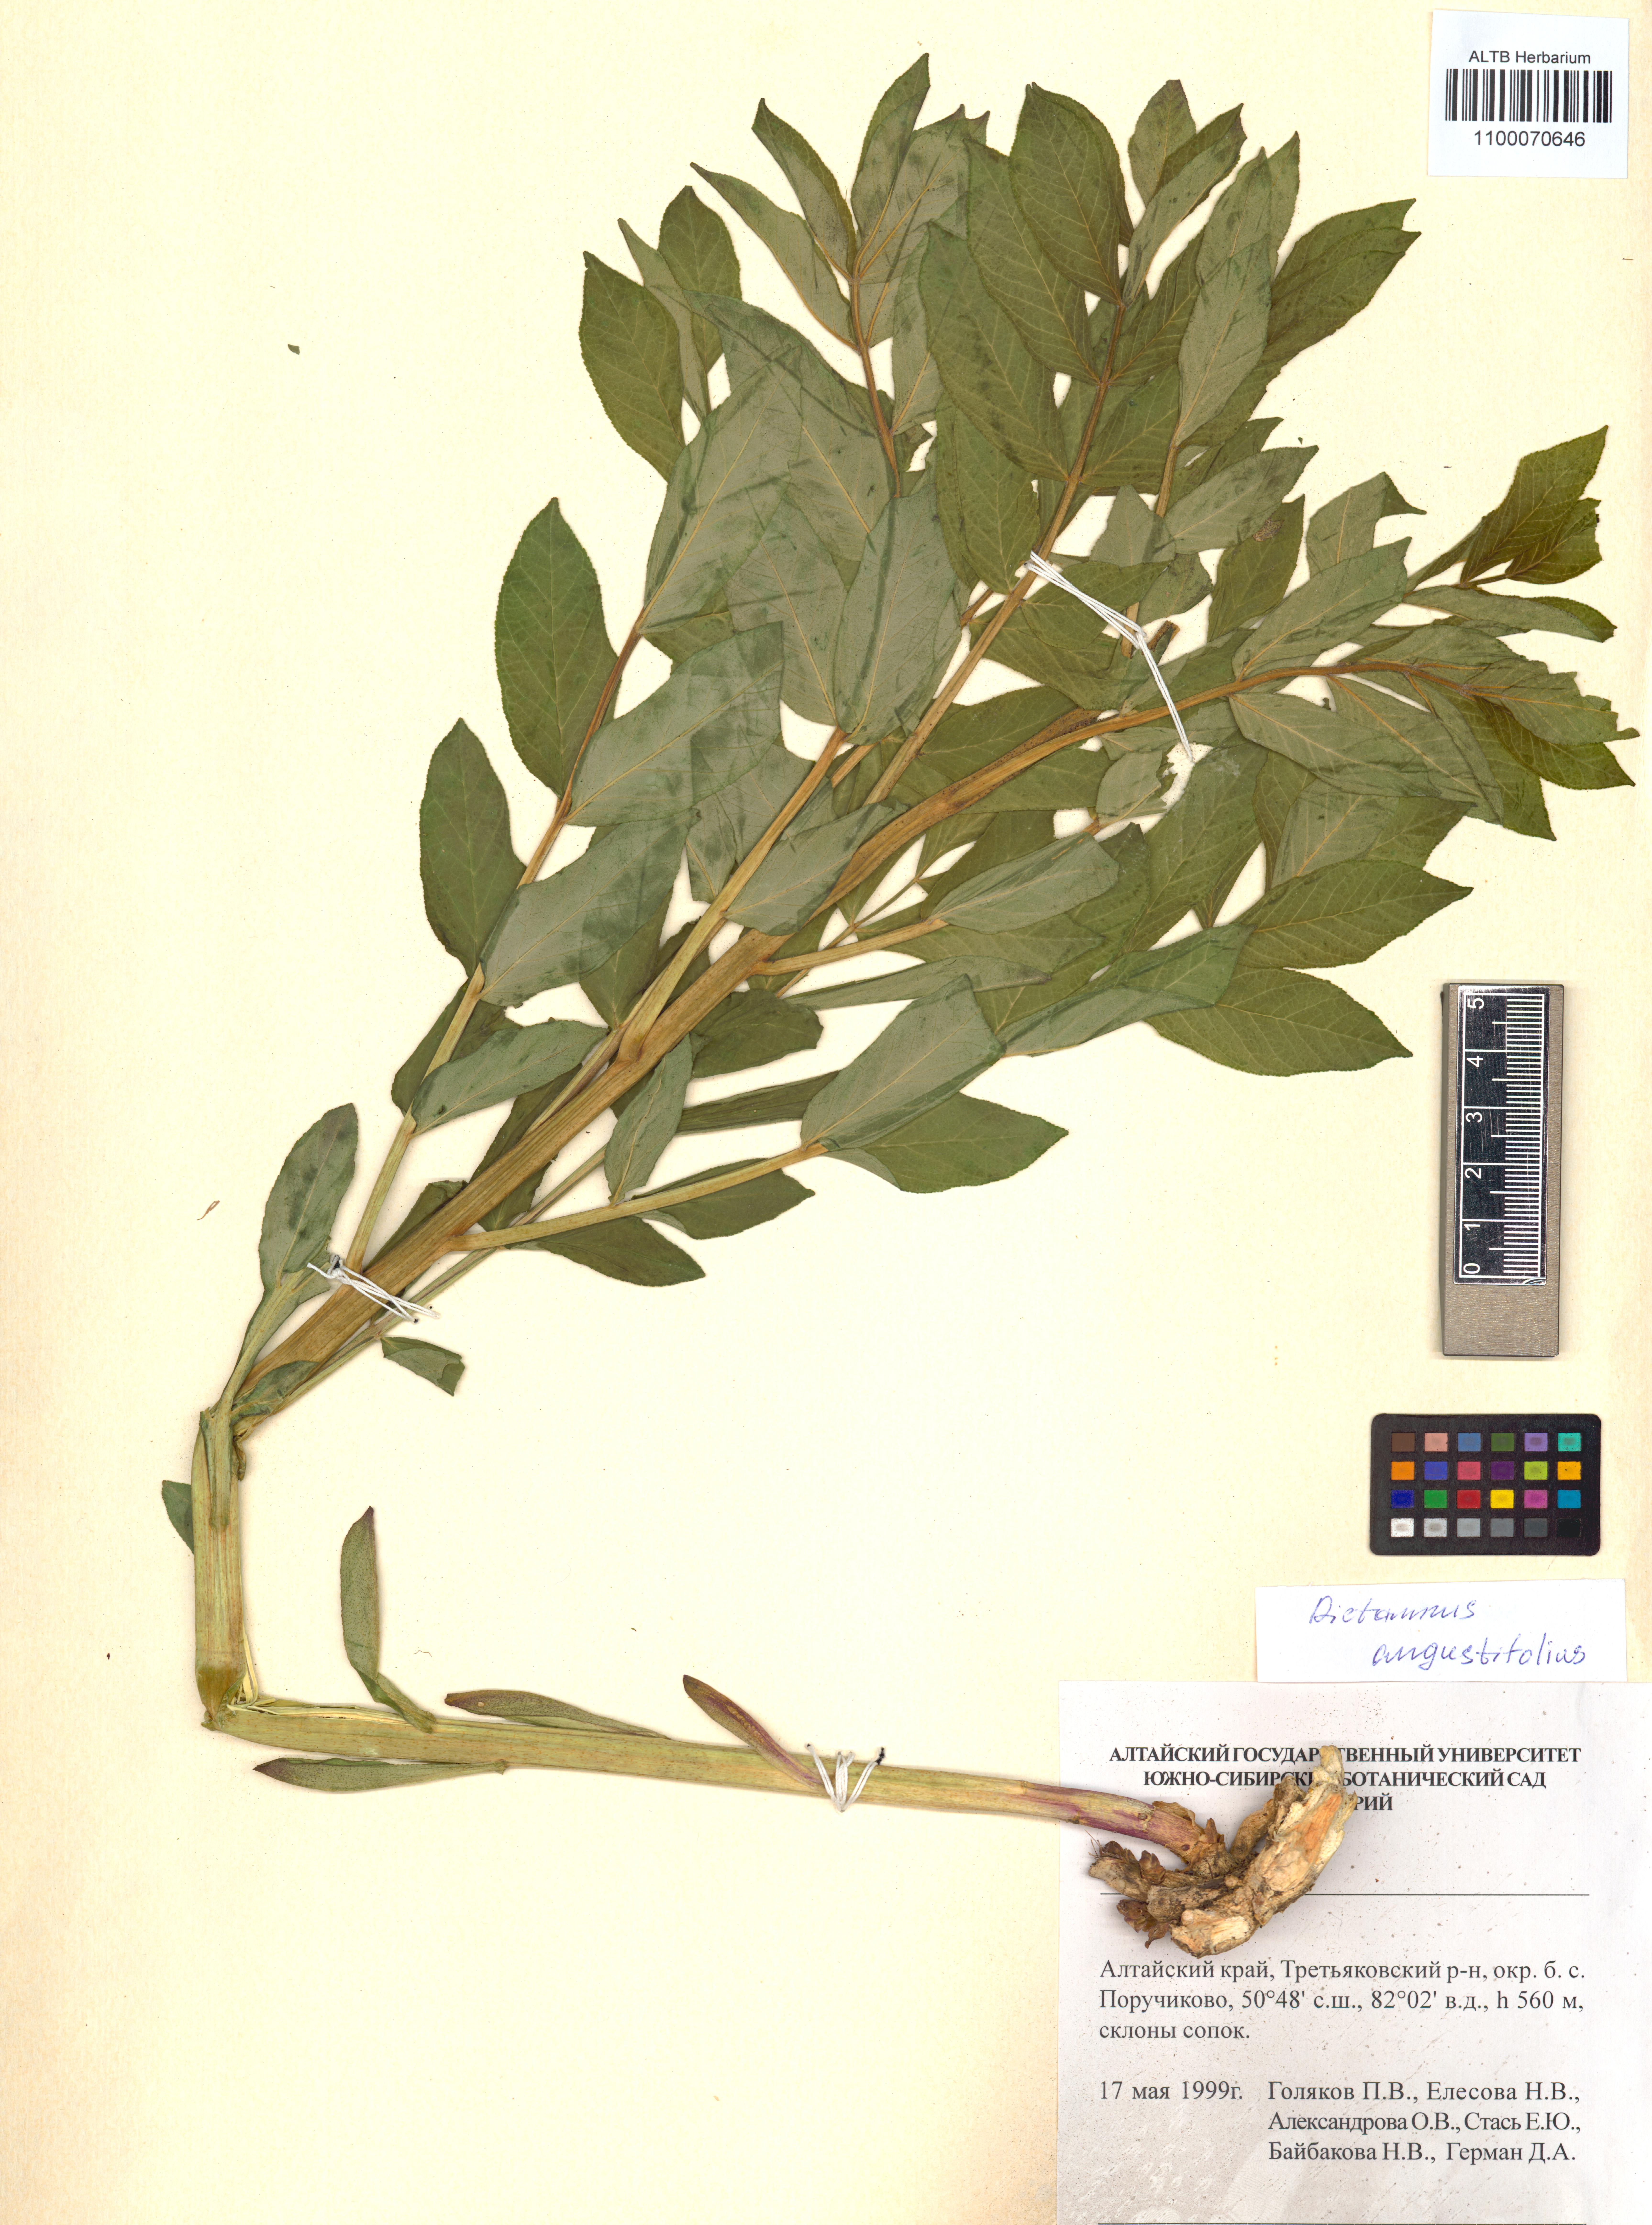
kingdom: Plantae
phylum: Tracheophyta
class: Magnoliopsida
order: Sapindales
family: Rutaceae
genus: Dictamnus
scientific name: Dictamnus albus
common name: Gasplant
